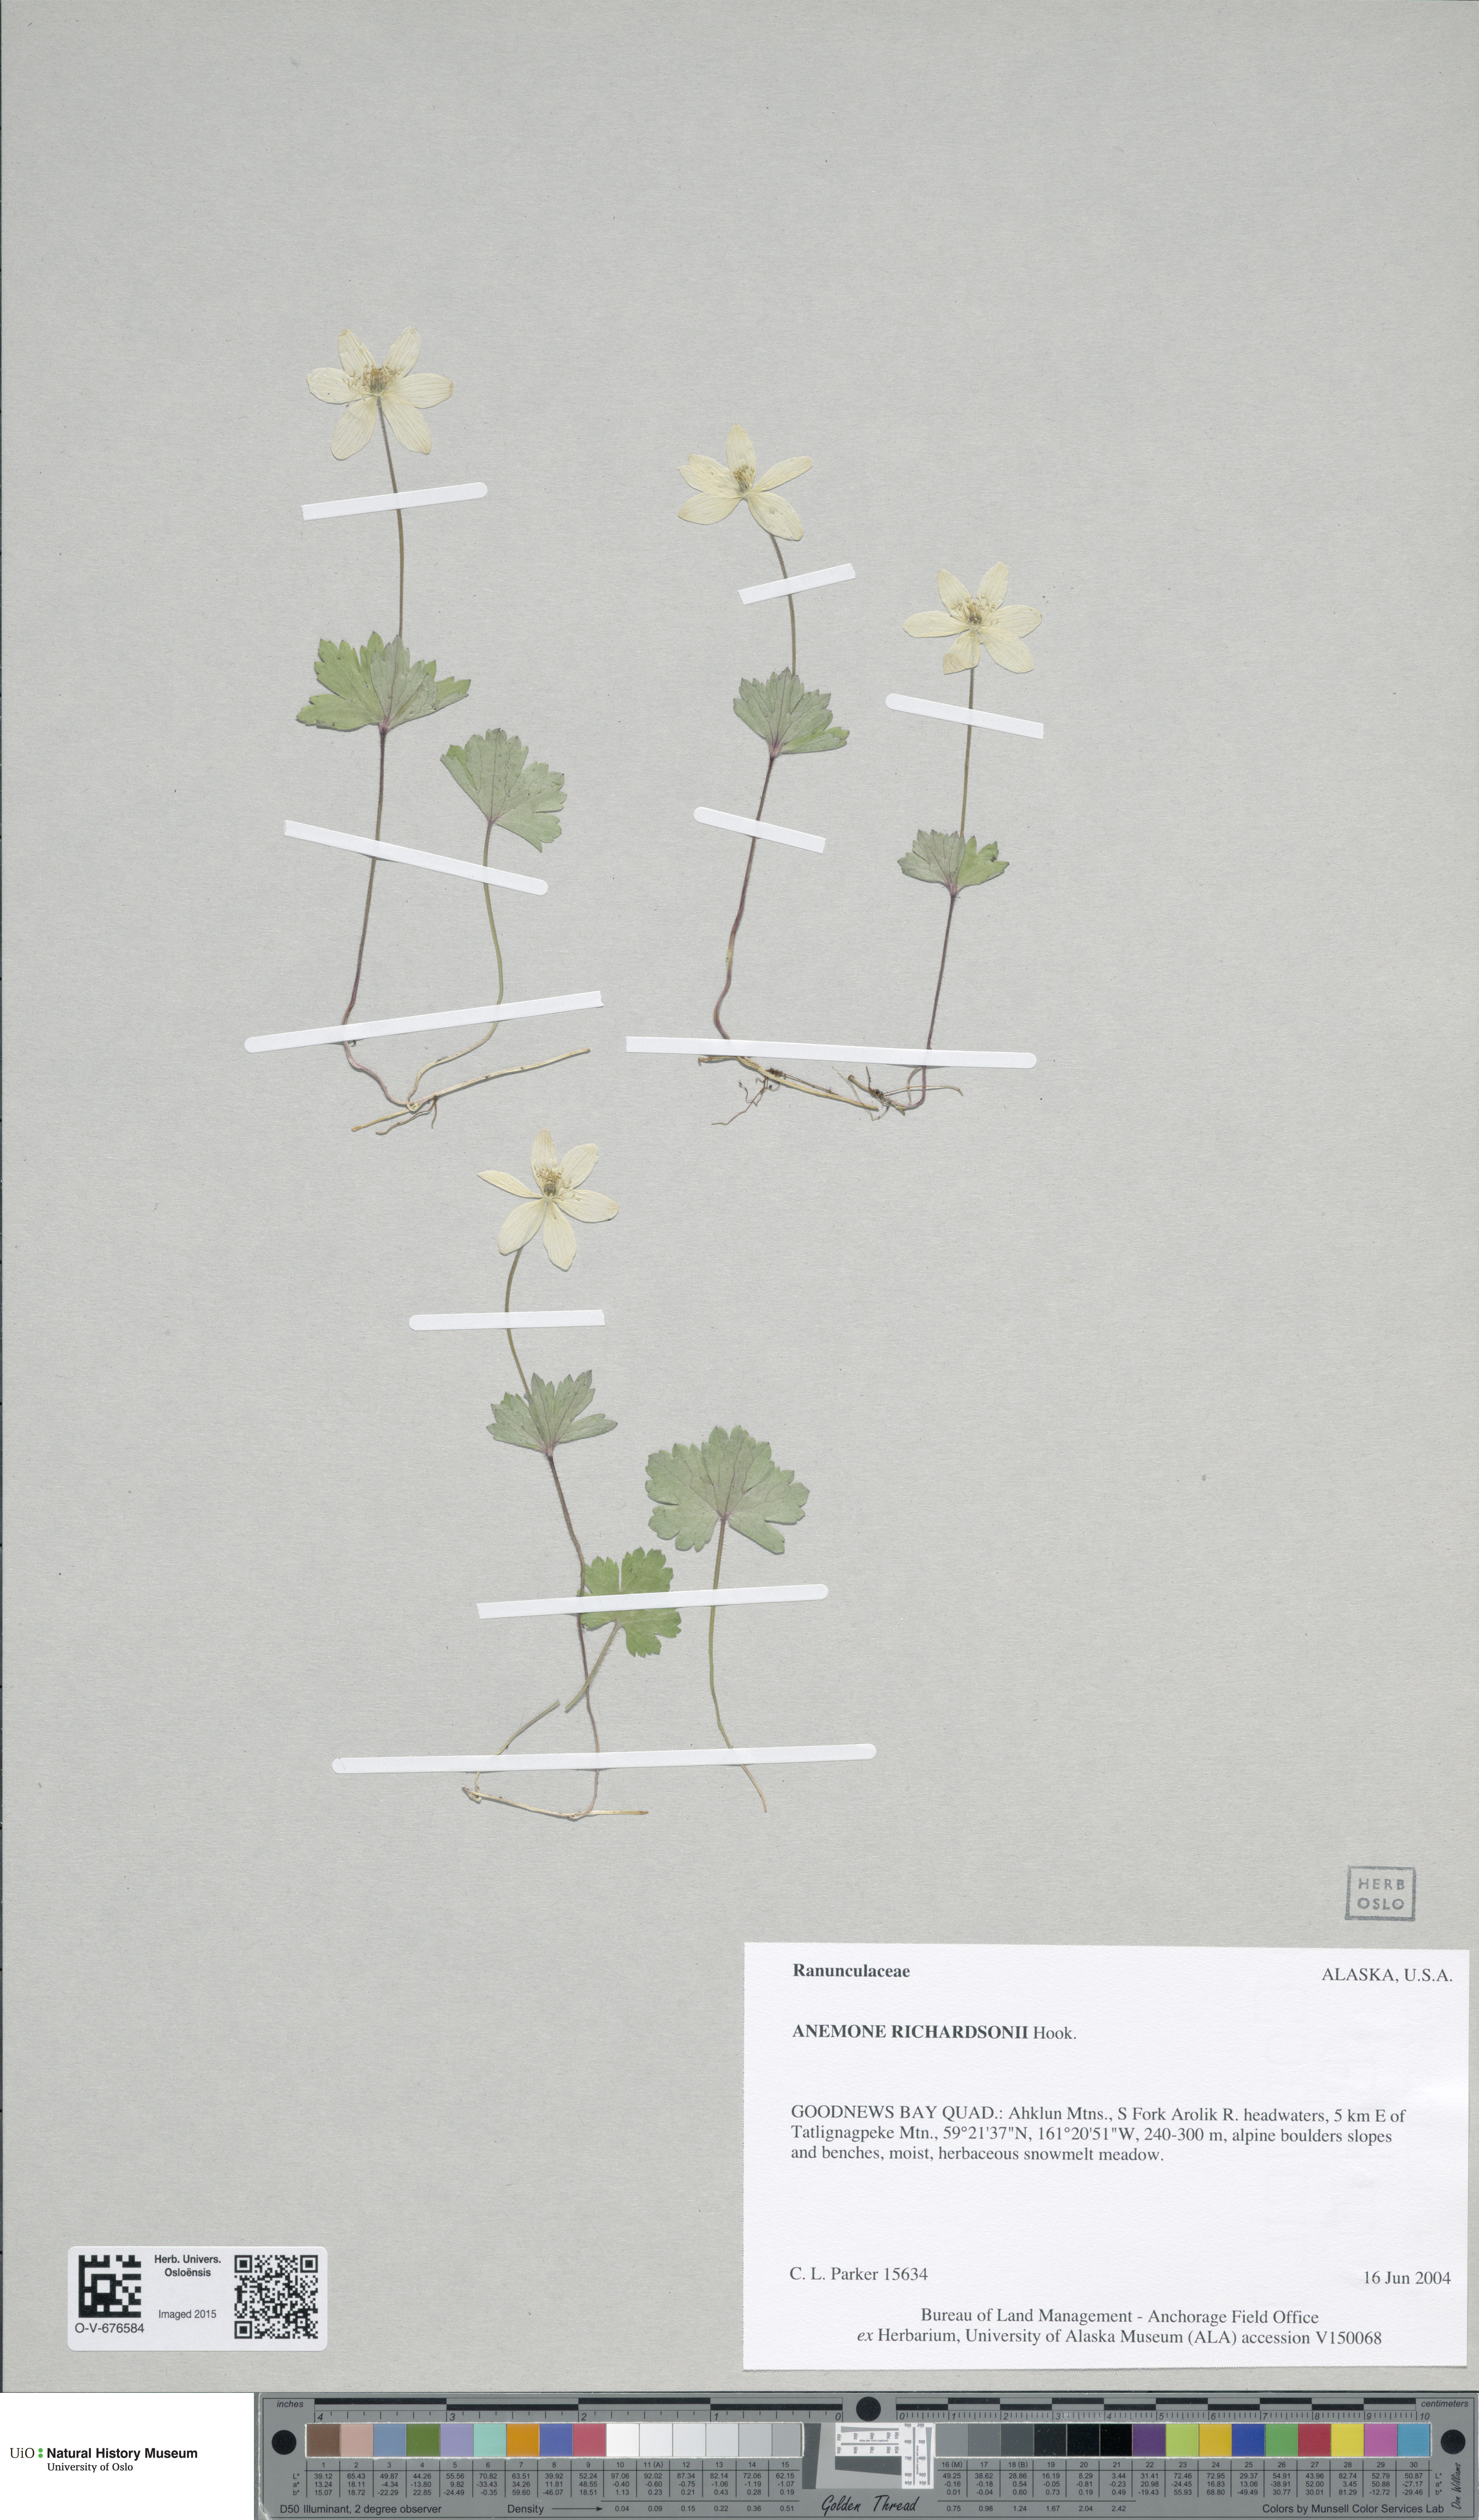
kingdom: Plantae
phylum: Tracheophyta
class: Magnoliopsida
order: Ranunculales
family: Ranunculaceae
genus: Anemonastrum
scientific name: Anemonastrum richardsonii
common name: Richardson's anemone
